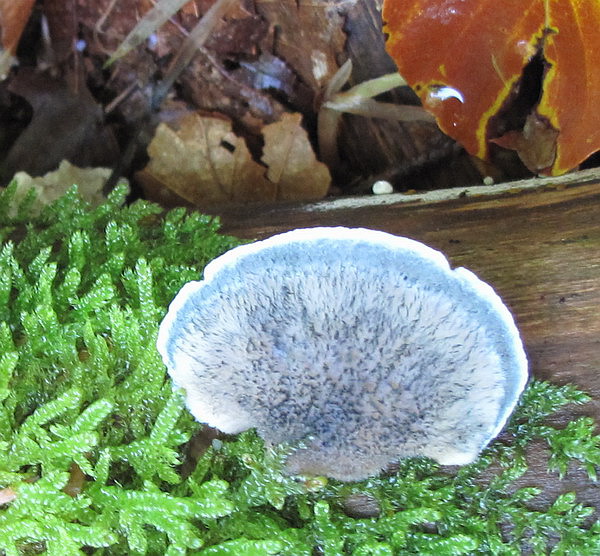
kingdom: Fungi
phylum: Basidiomycota
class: Agaricomycetes
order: Polyporales
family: Polyporaceae
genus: Cyanosporus
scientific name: Cyanosporus caesius
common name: blålig kødporesvamp
